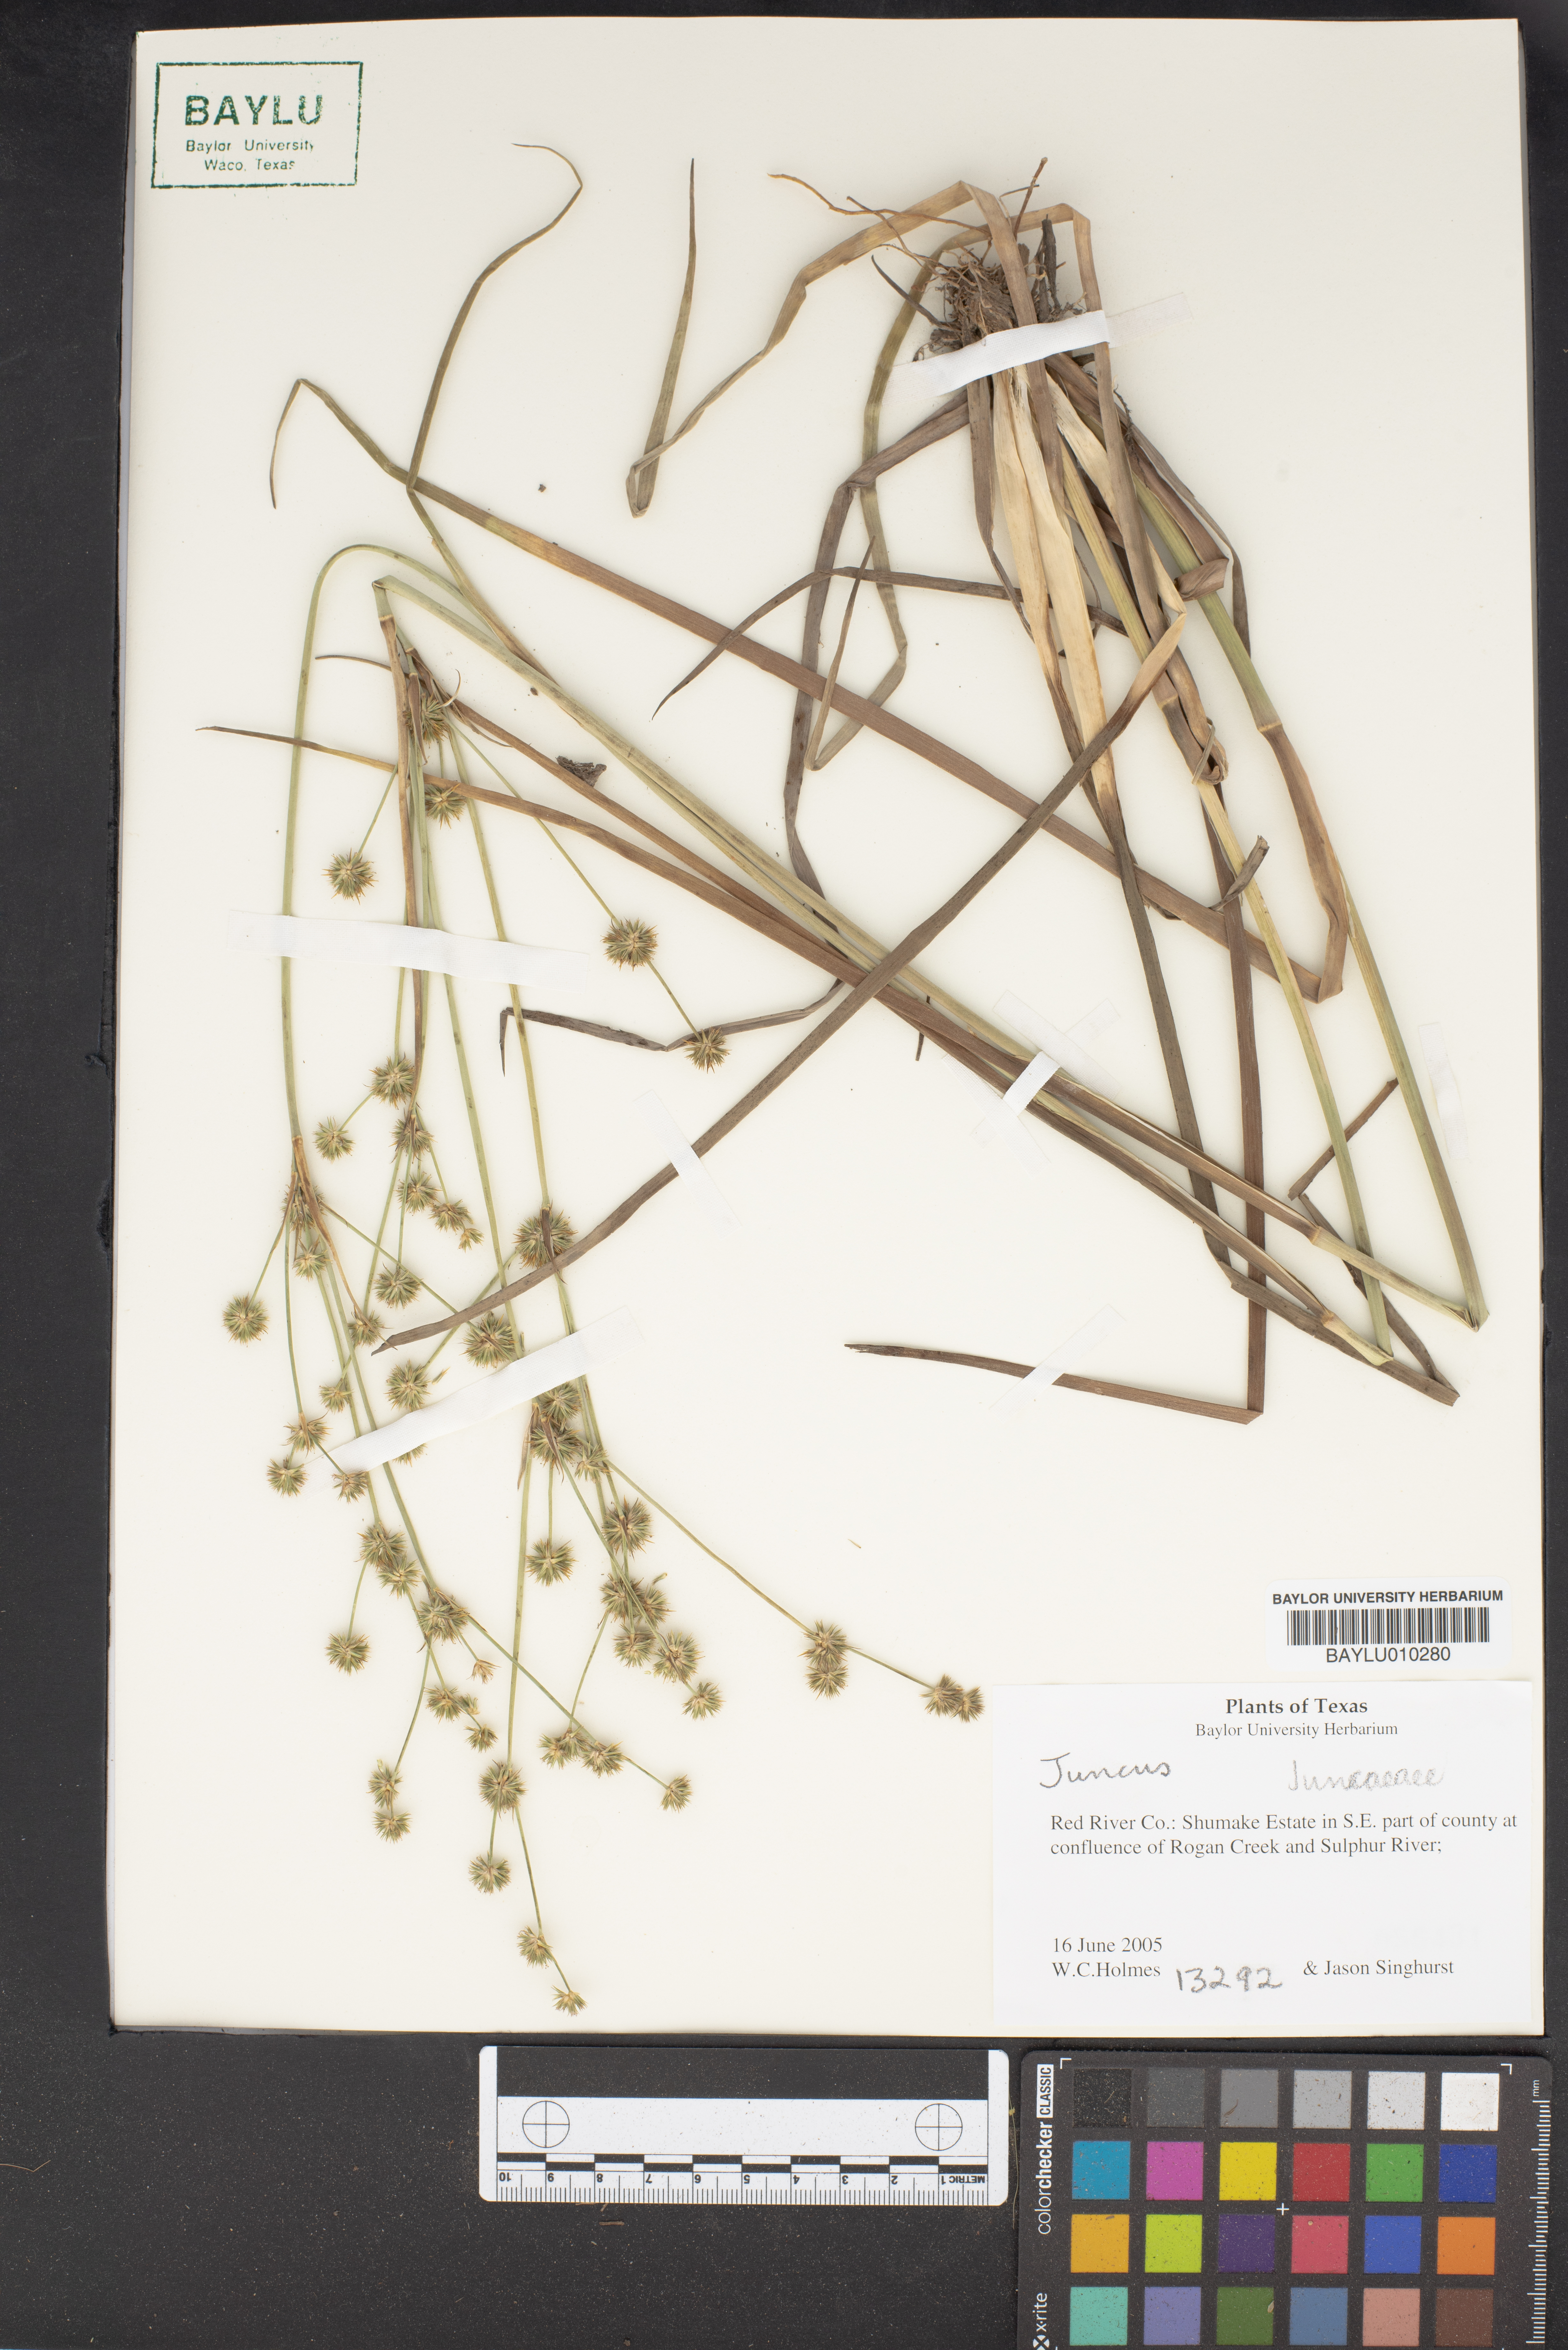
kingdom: Plantae
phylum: Tracheophyta
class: Liliopsida
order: Poales
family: Juncaceae
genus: Juncus
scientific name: Juncus
